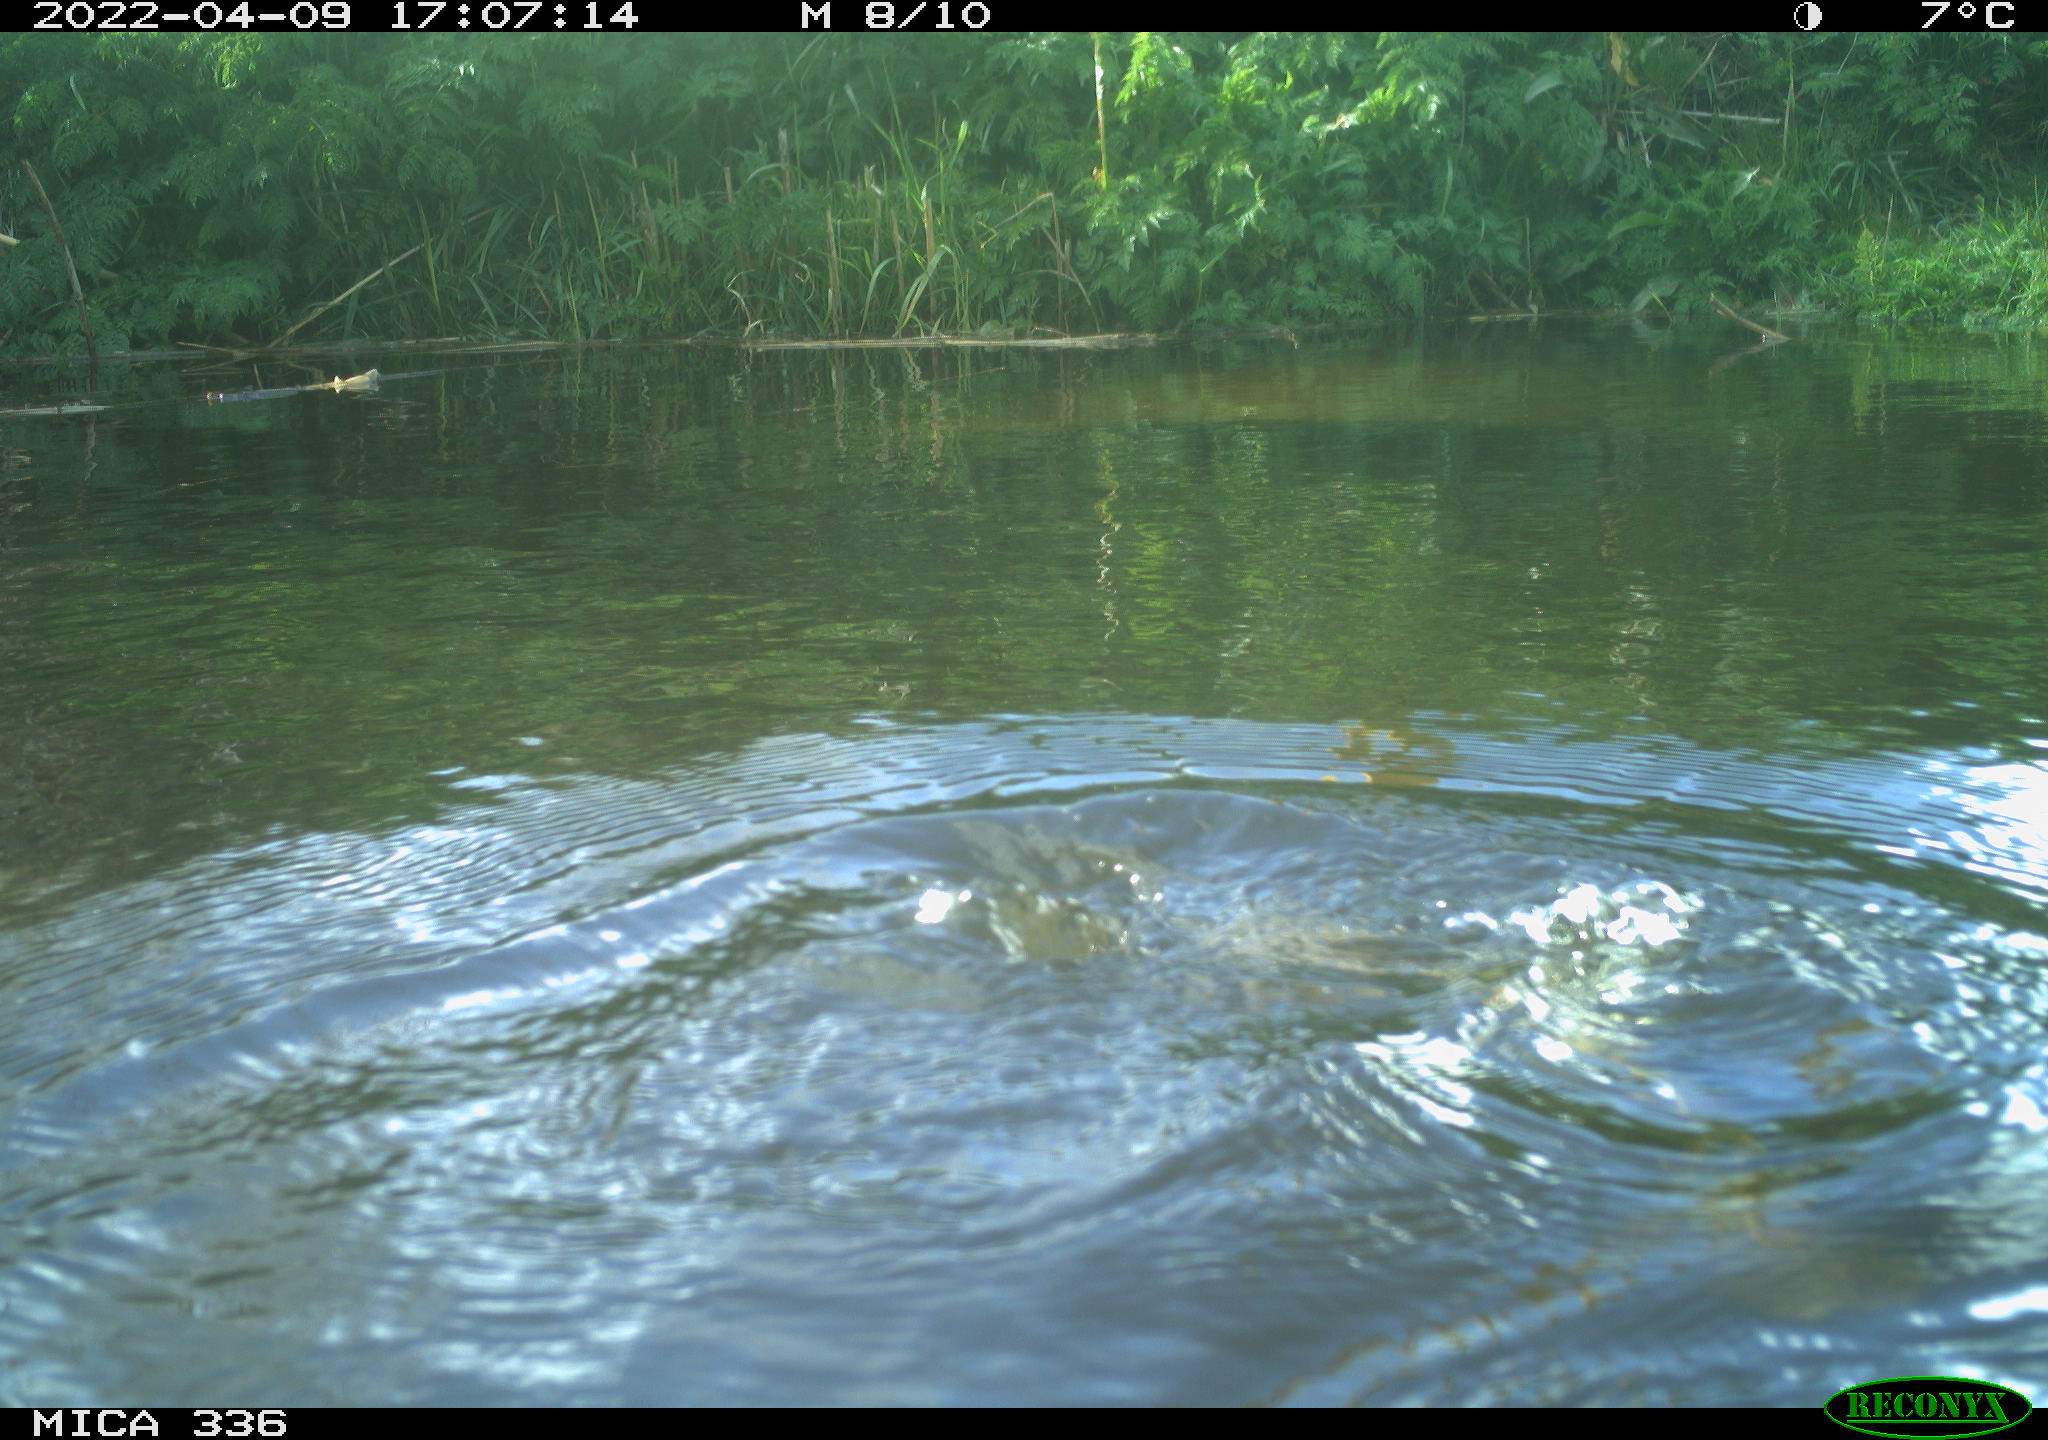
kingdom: Animalia
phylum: Chordata
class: Aves
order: Podicipediformes
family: Podicipedidae
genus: Podiceps
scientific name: Podiceps cristatus
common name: Great crested grebe
